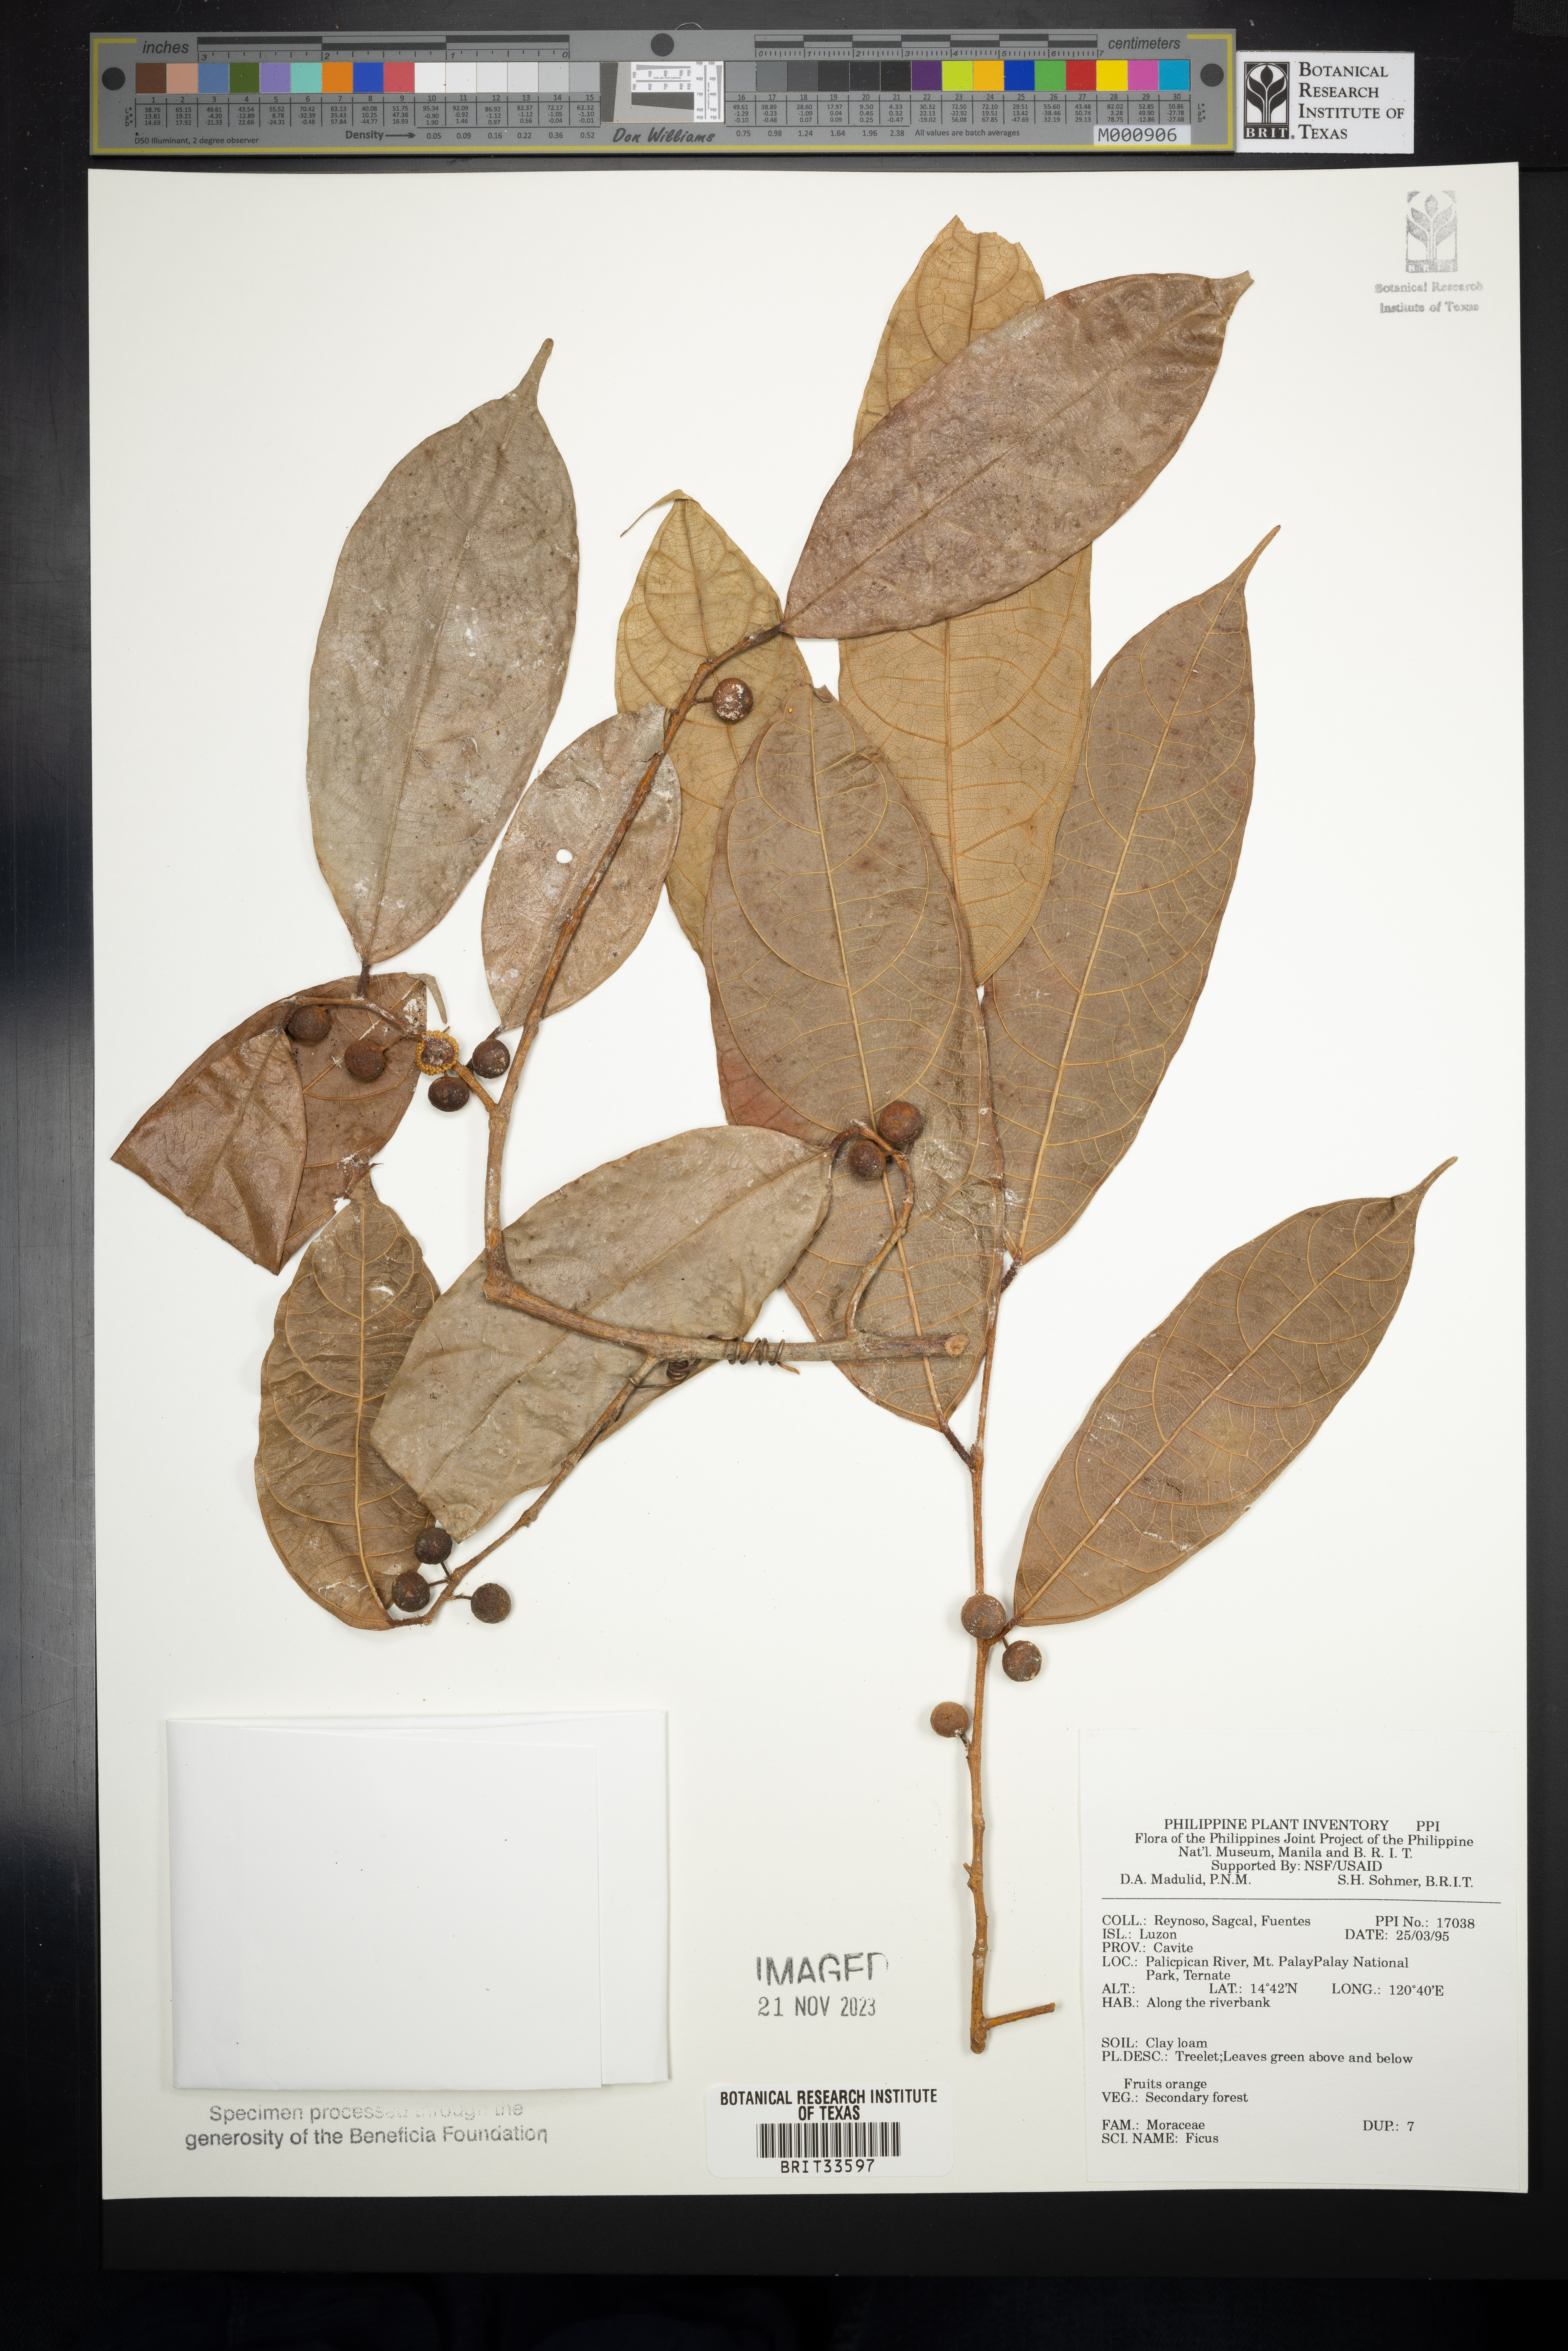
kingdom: Plantae
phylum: Tracheophyta
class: Magnoliopsida
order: Rosales
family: Moraceae
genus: Ficus
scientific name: Ficus
